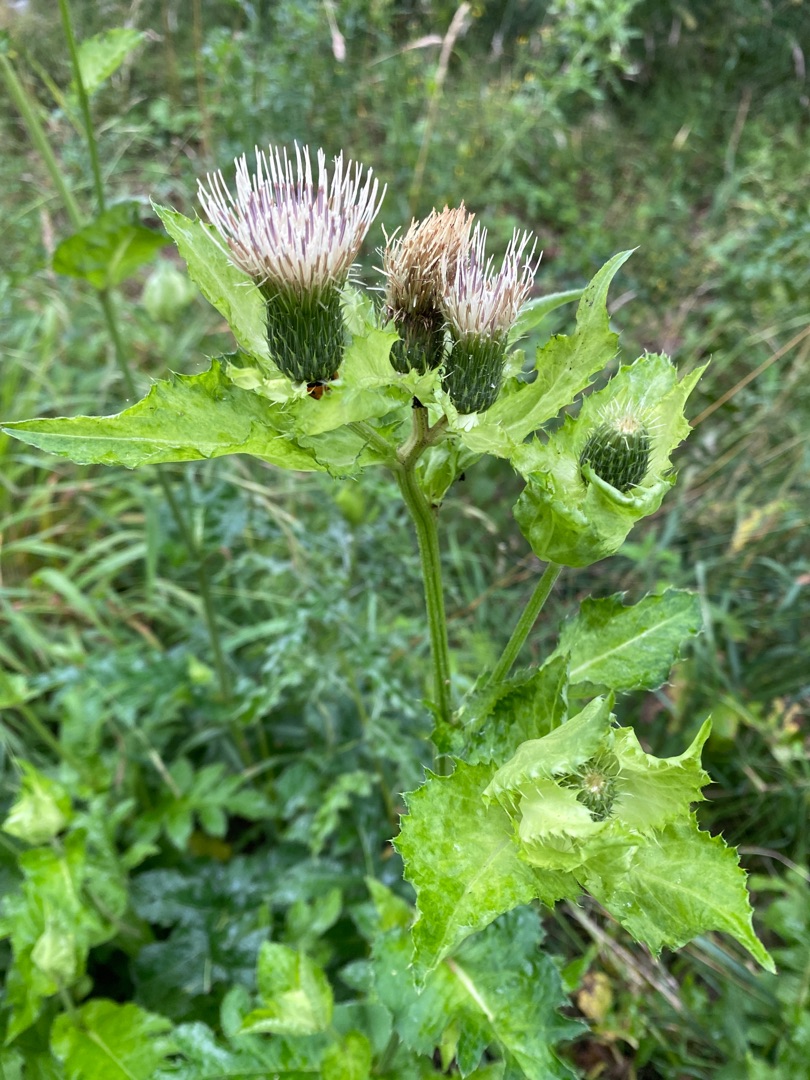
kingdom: Plantae
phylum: Tracheophyta
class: Magnoliopsida
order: Asterales
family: Asteraceae
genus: Cirsium
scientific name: Cirsium oleraceum
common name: Kål-tidsel
